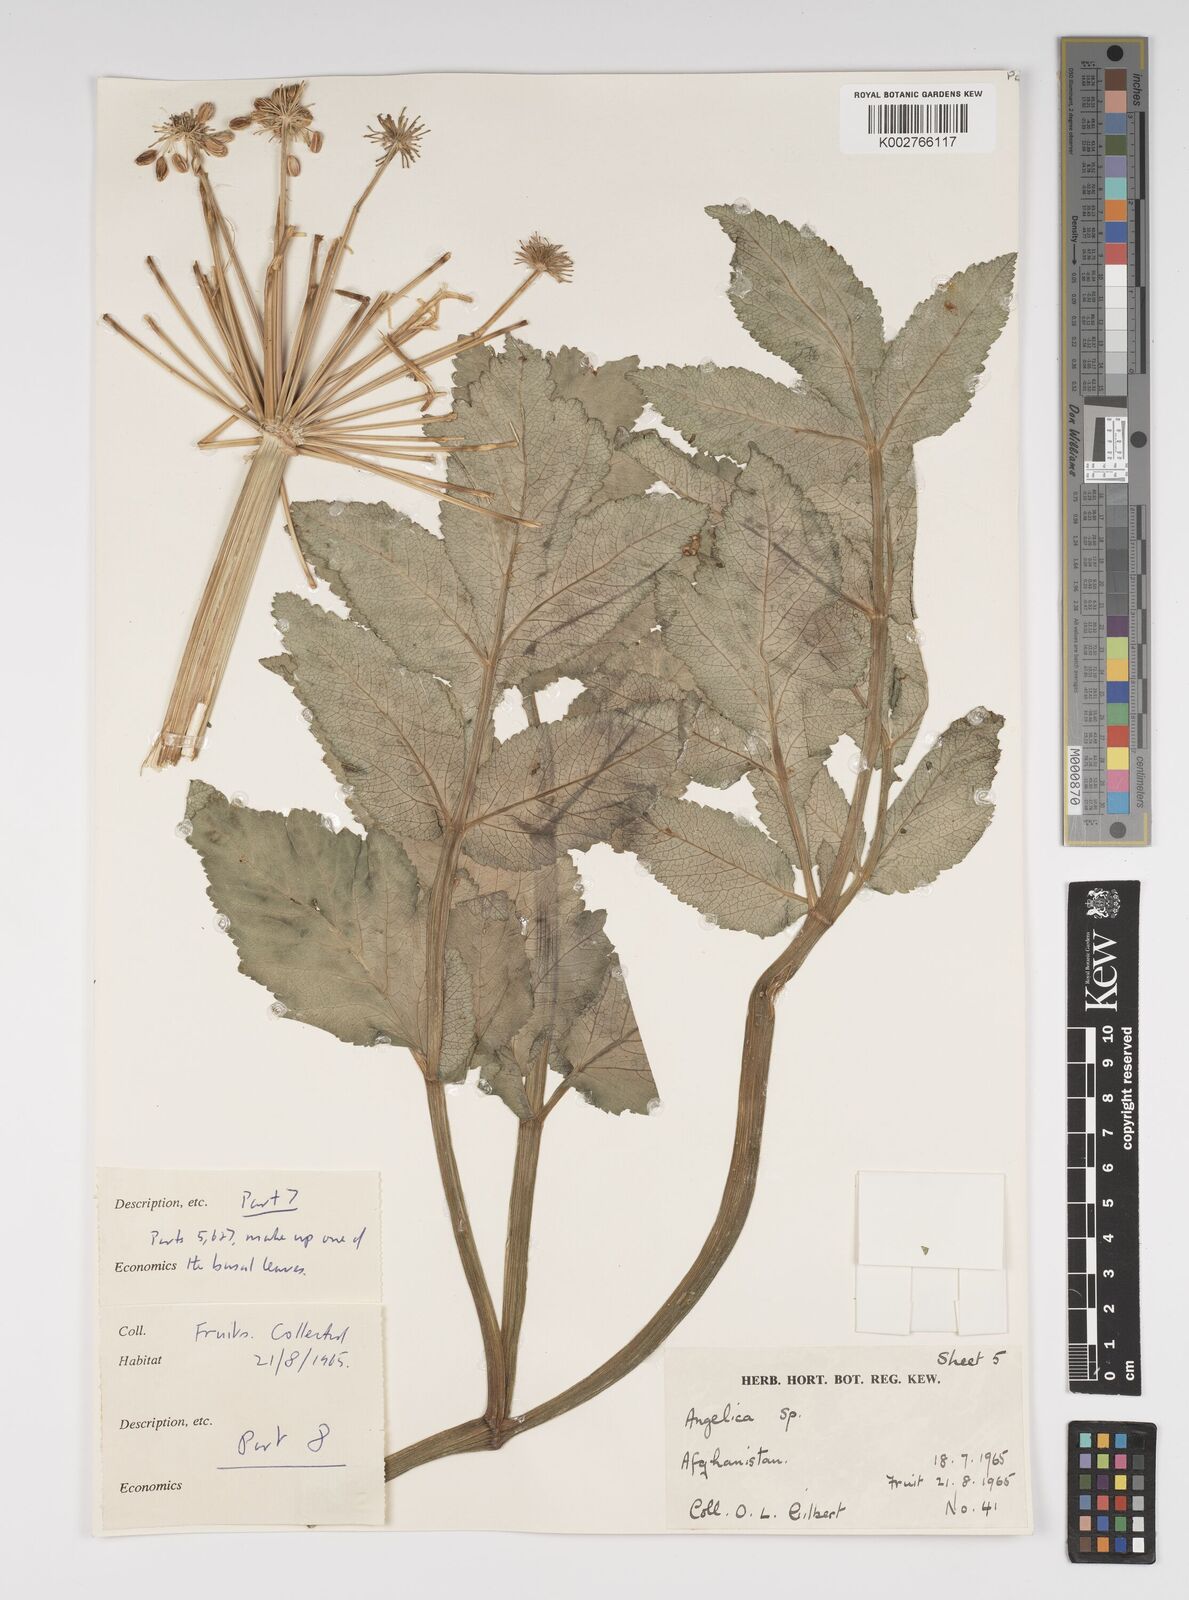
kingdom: Plantae
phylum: Tracheophyta
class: Magnoliopsida
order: Apiales
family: Apiaceae
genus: Angelica
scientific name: Angelica
